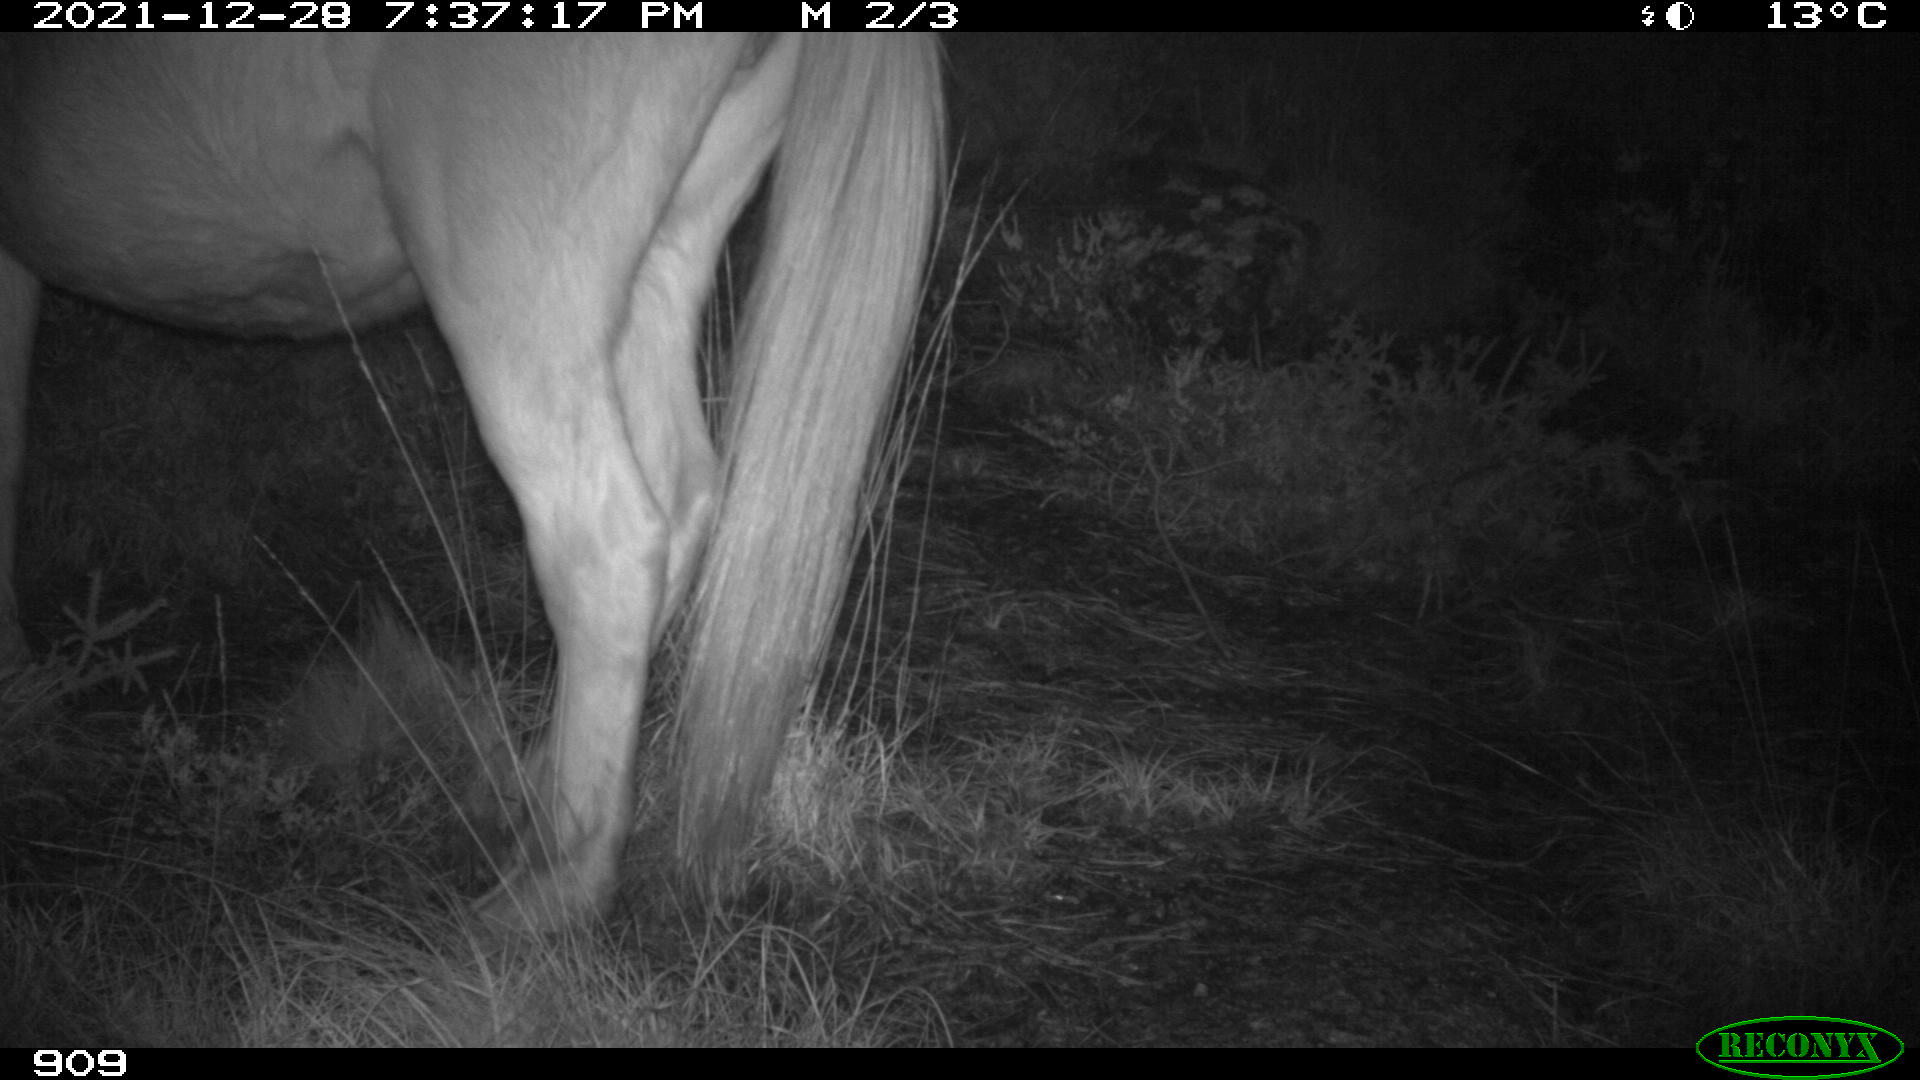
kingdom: Animalia
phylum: Chordata
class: Mammalia
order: Perissodactyla
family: Equidae
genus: Equus
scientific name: Equus caballus
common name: Horse
